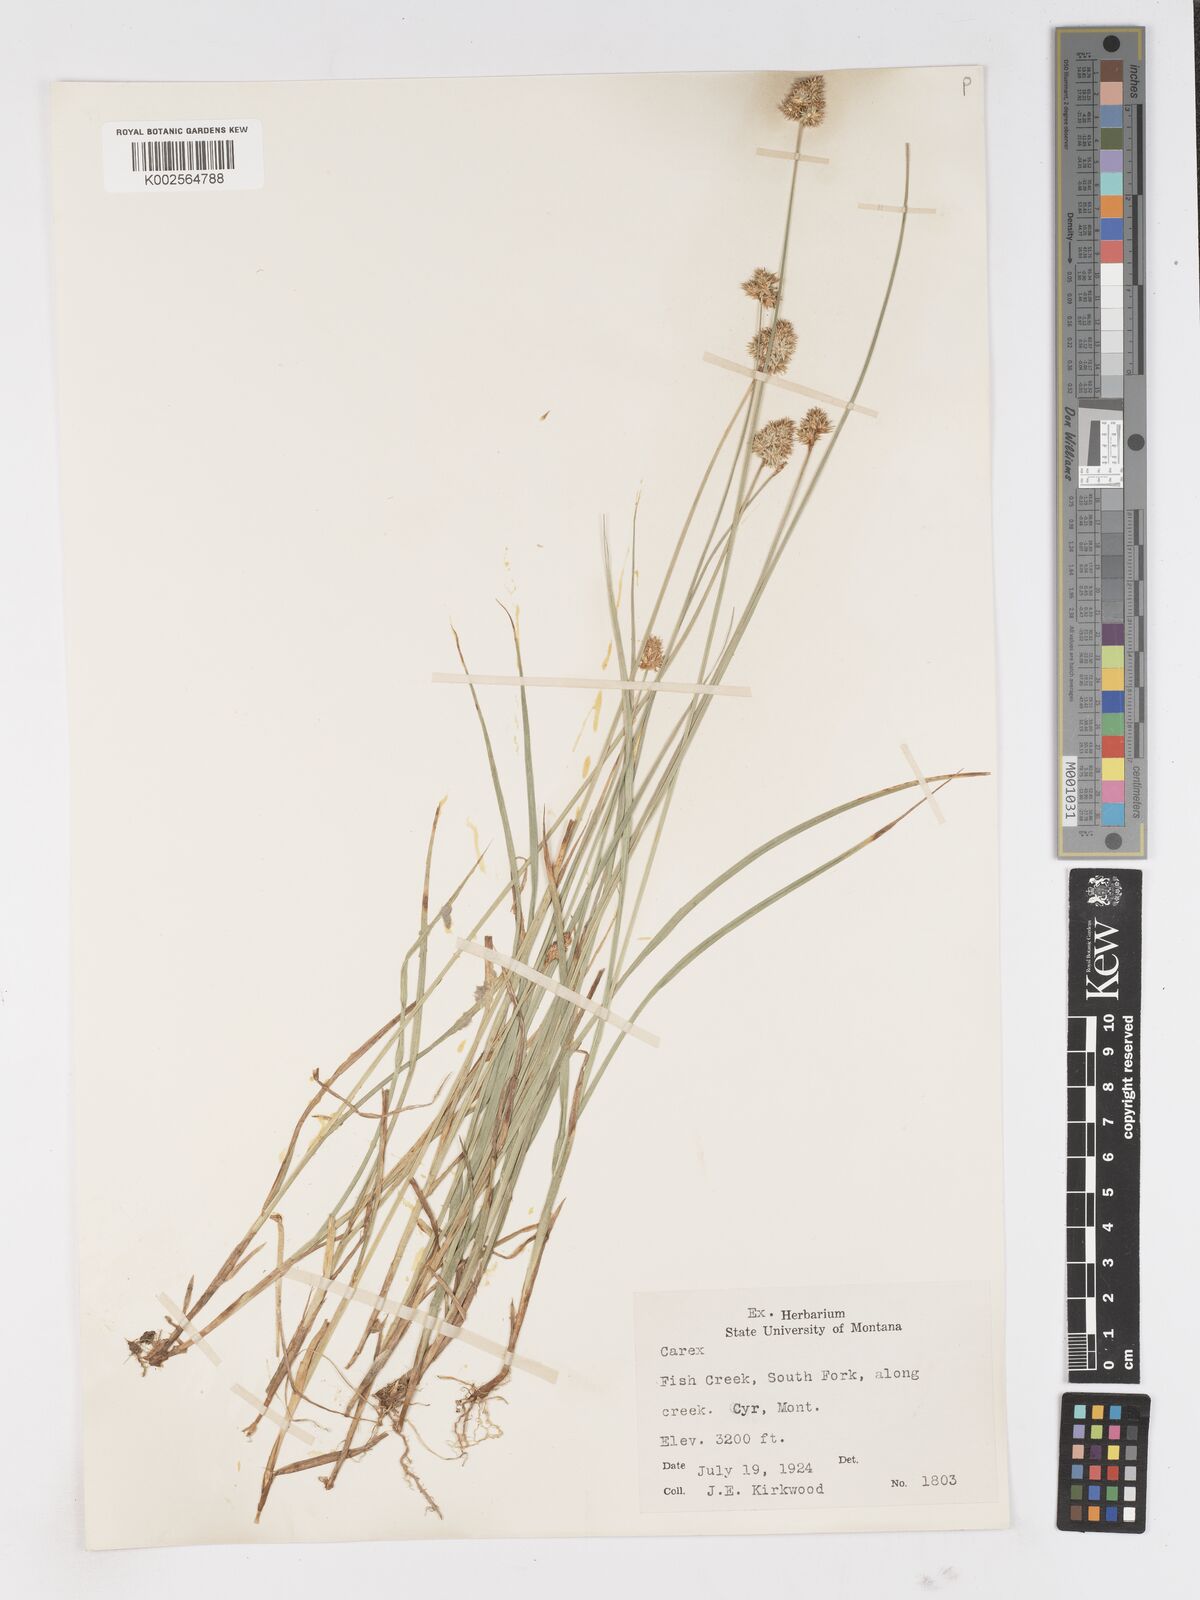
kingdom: Plantae
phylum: Tracheophyta
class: Liliopsida
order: Poales
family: Cyperaceae
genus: Carex
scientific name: Carex
